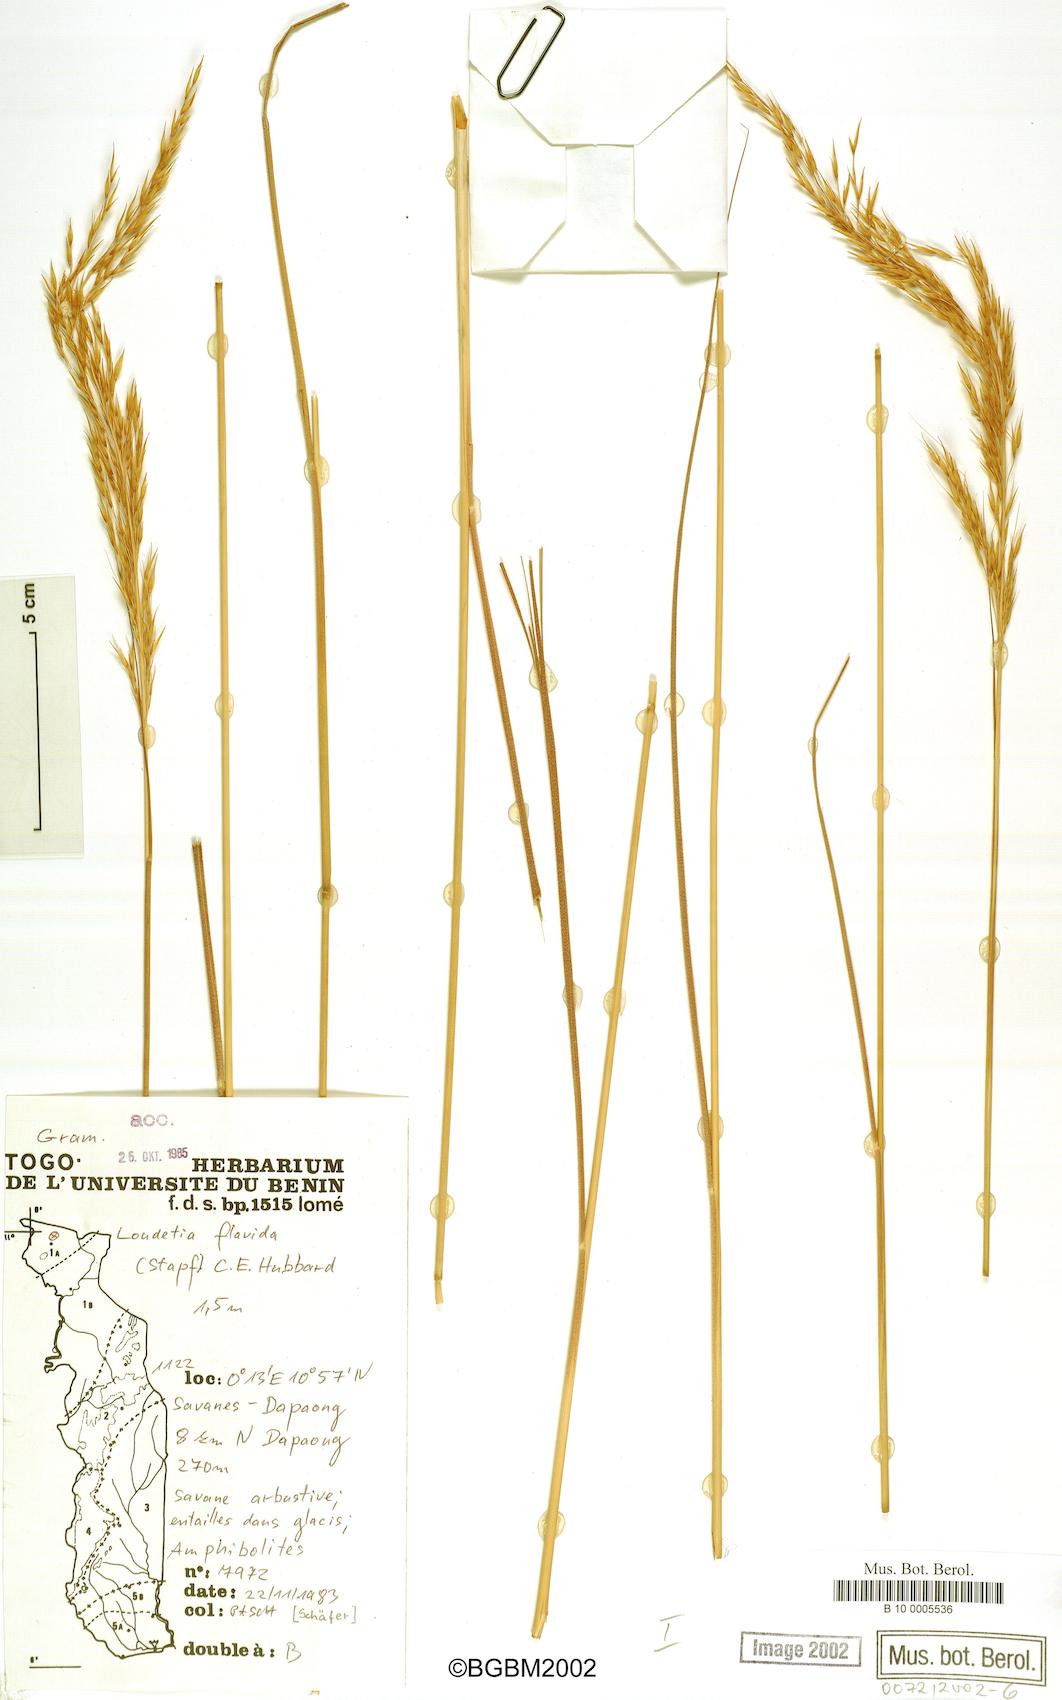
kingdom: Plantae
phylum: Tracheophyta
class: Liliopsida
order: Poales
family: Poaceae
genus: Loudetia
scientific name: Loudetia flavida
